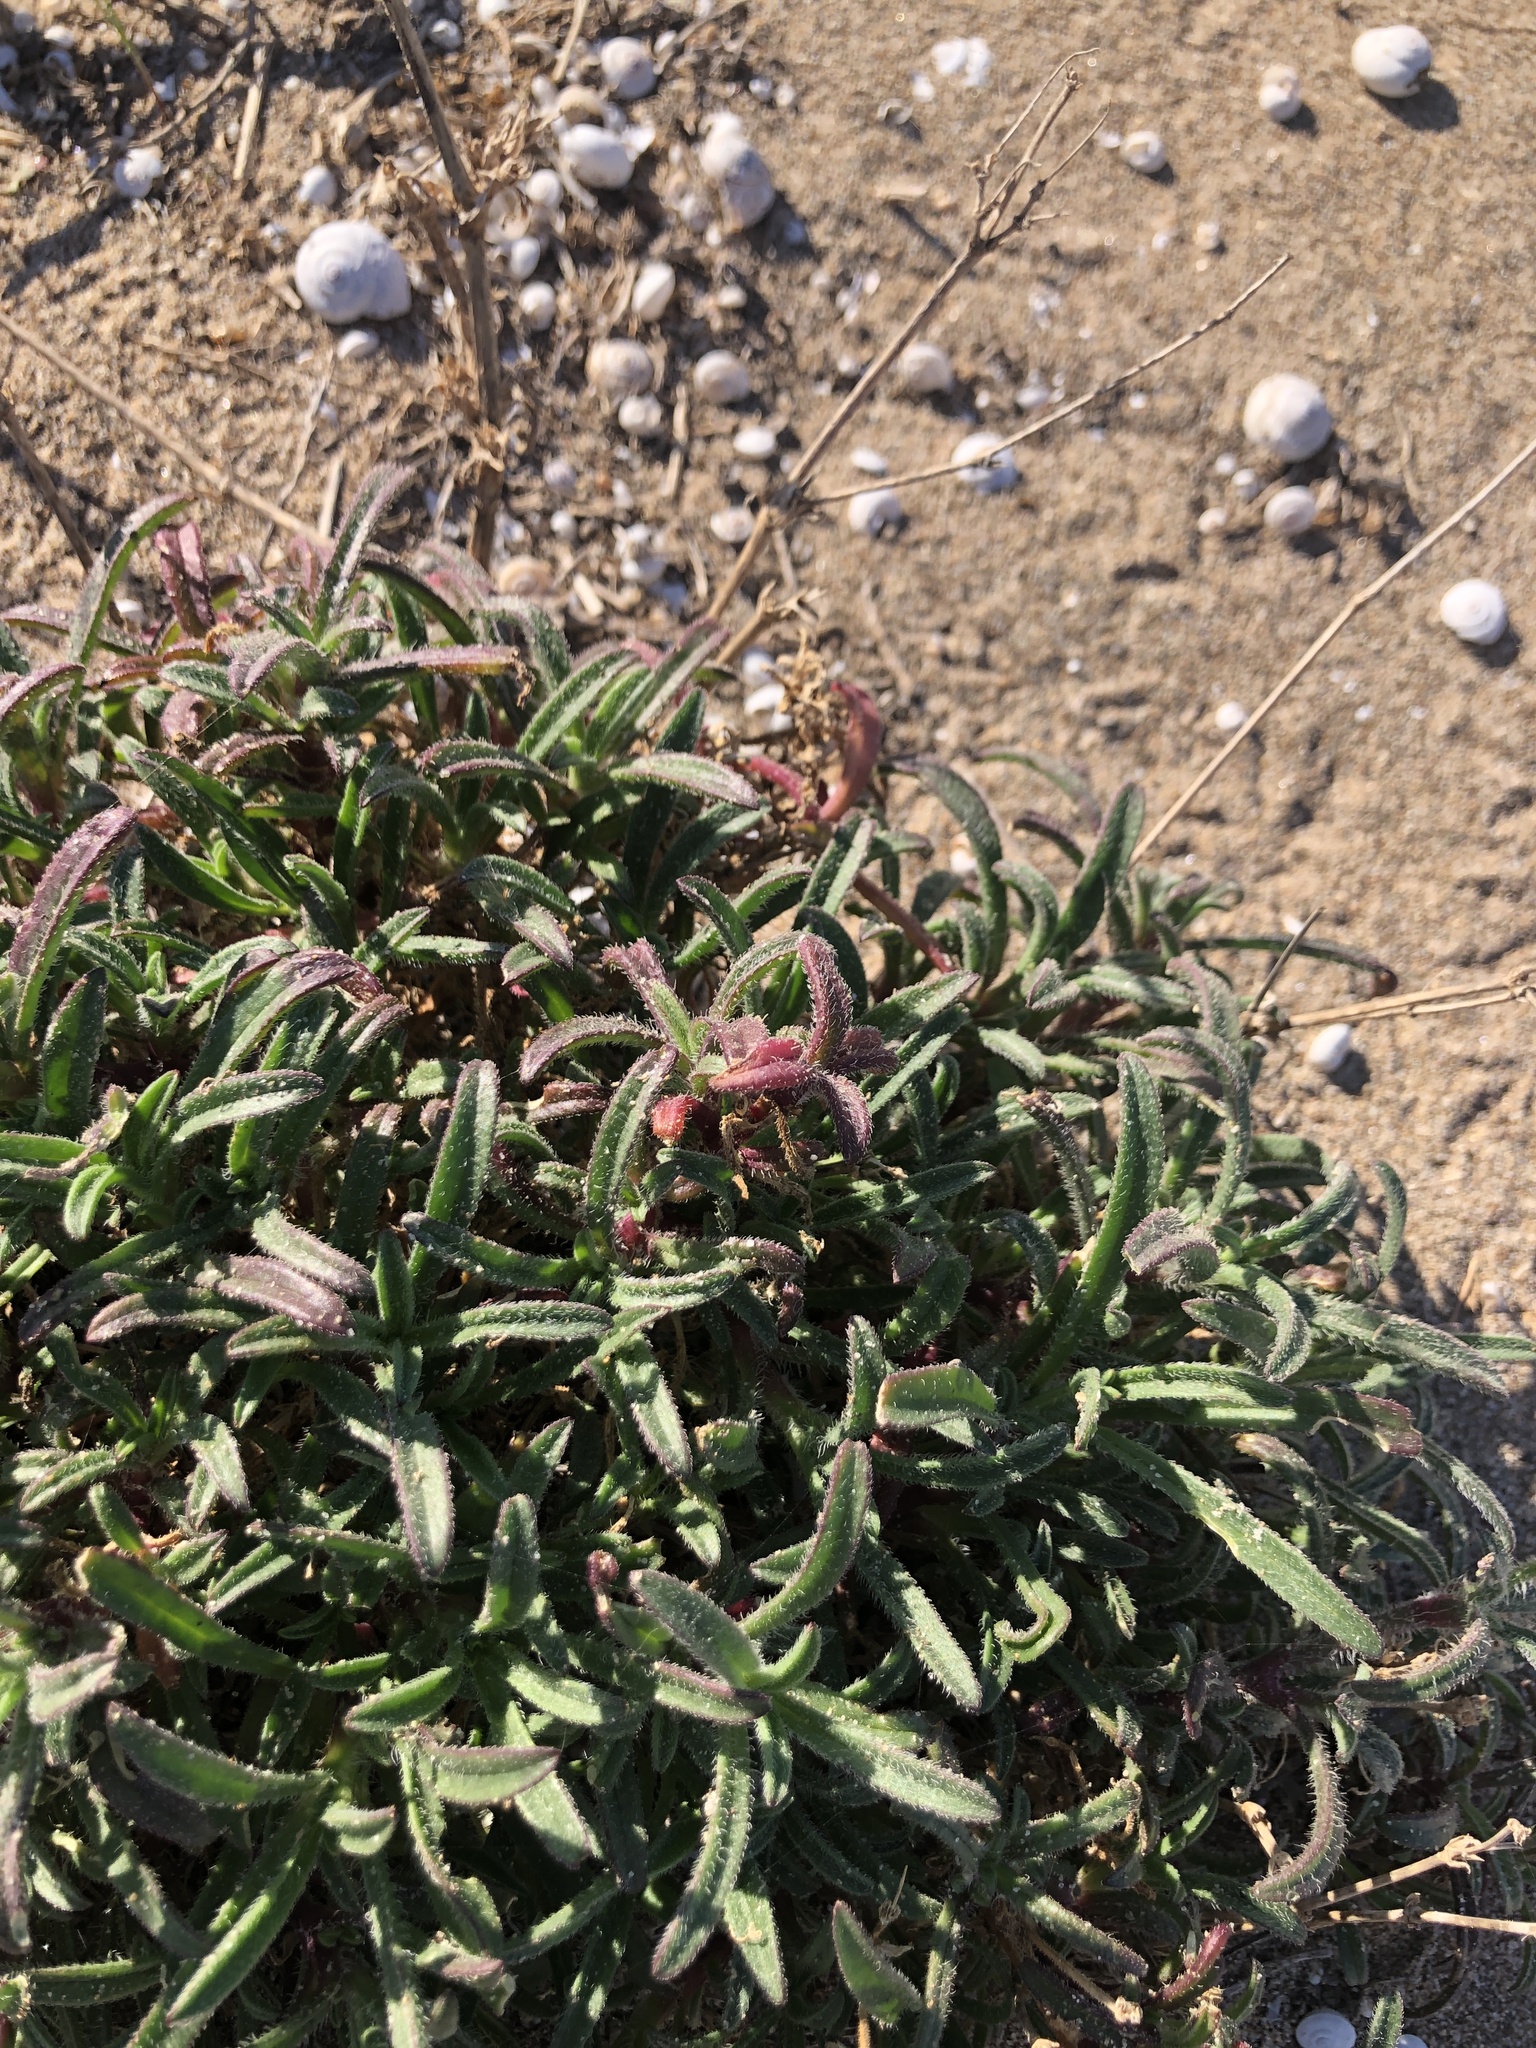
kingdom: Plantae
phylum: Tracheophyta
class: Magnoliopsida
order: Caryophyllales
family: Caryophyllaceae
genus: Silene
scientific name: Silene nicaeensis
